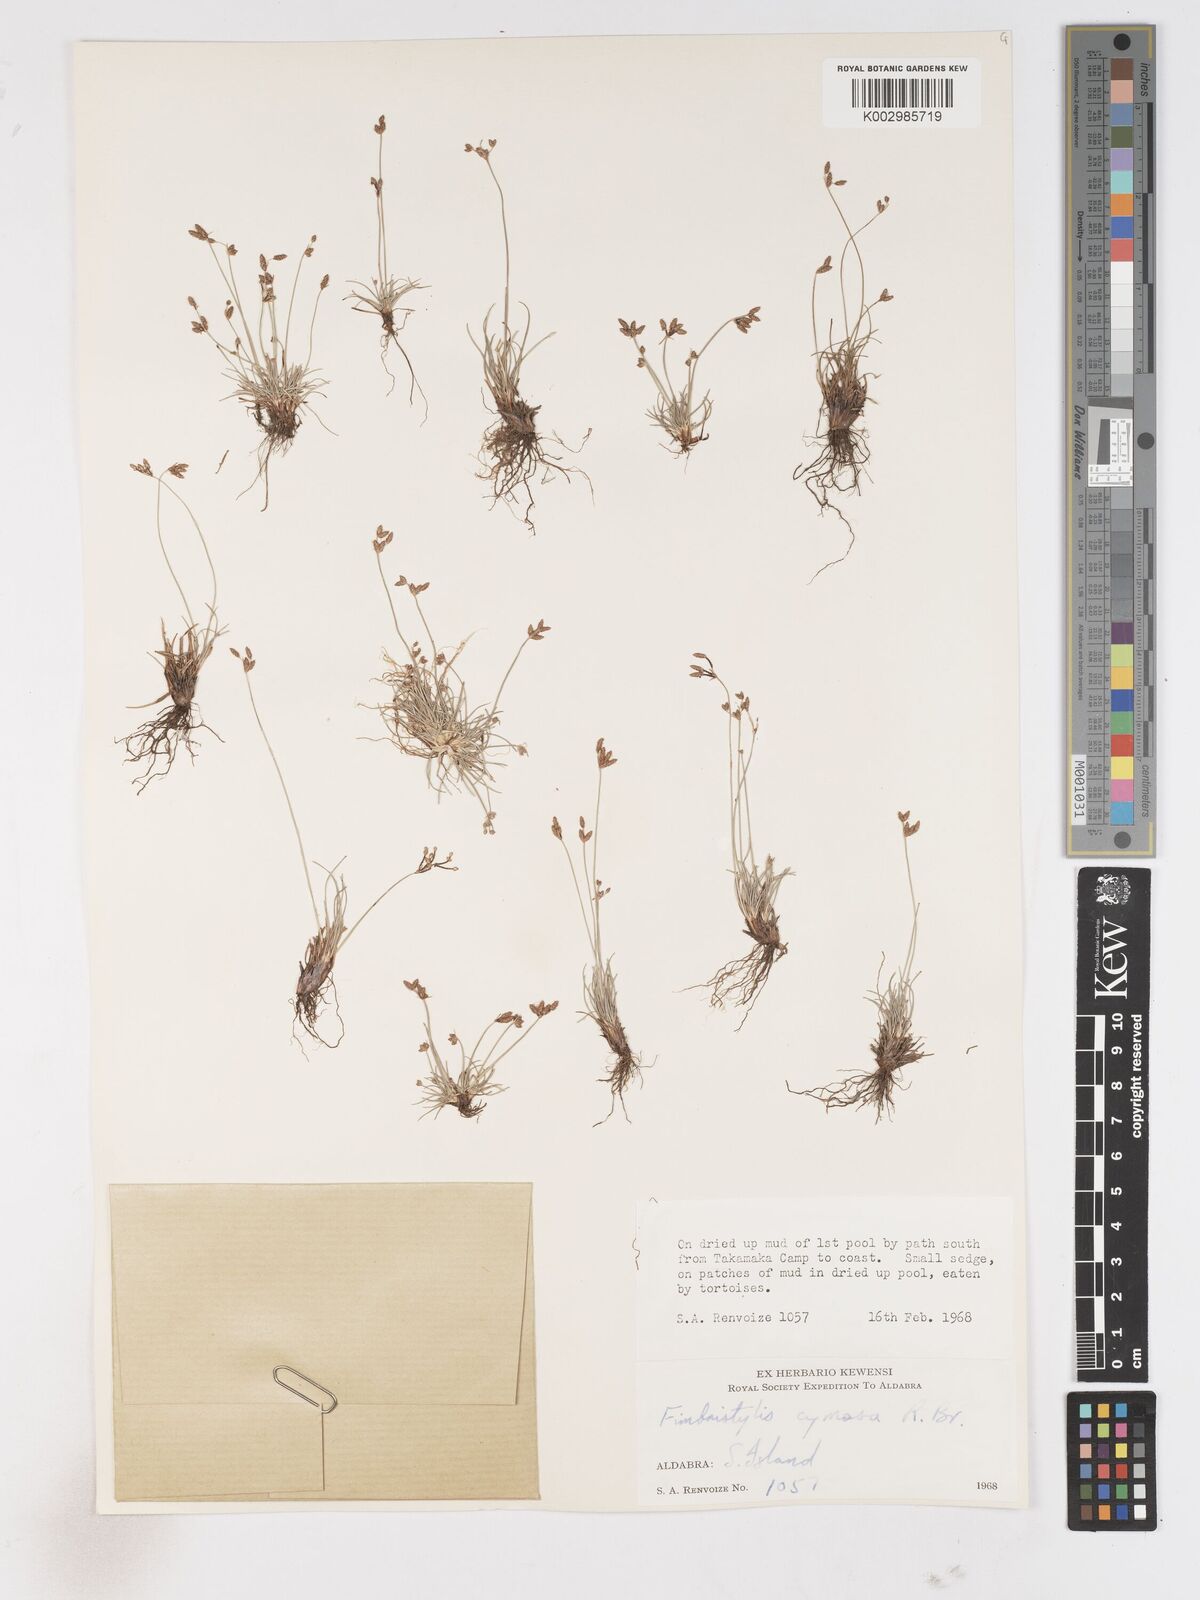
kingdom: Plantae
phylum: Tracheophyta
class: Liliopsida
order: Poales
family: Cyperaceae
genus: Fimbristylis
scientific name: Fimbristylis cymosa
